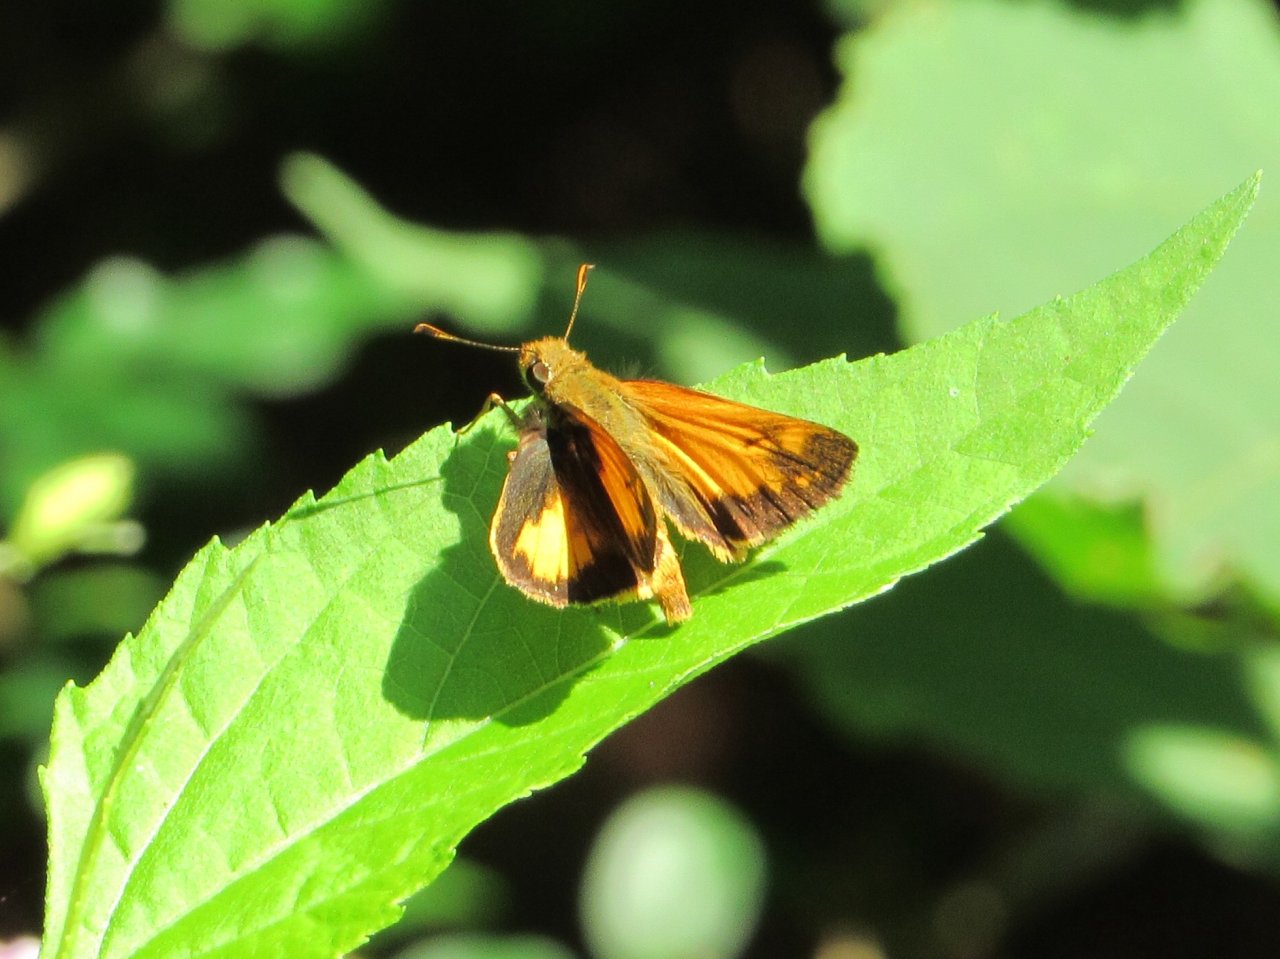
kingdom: Animalia
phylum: Arthropoda
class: Insecta
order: Lepidoptera
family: Hesperiidae
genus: Lon
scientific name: Lon zabulon
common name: Zabulon Skipper
